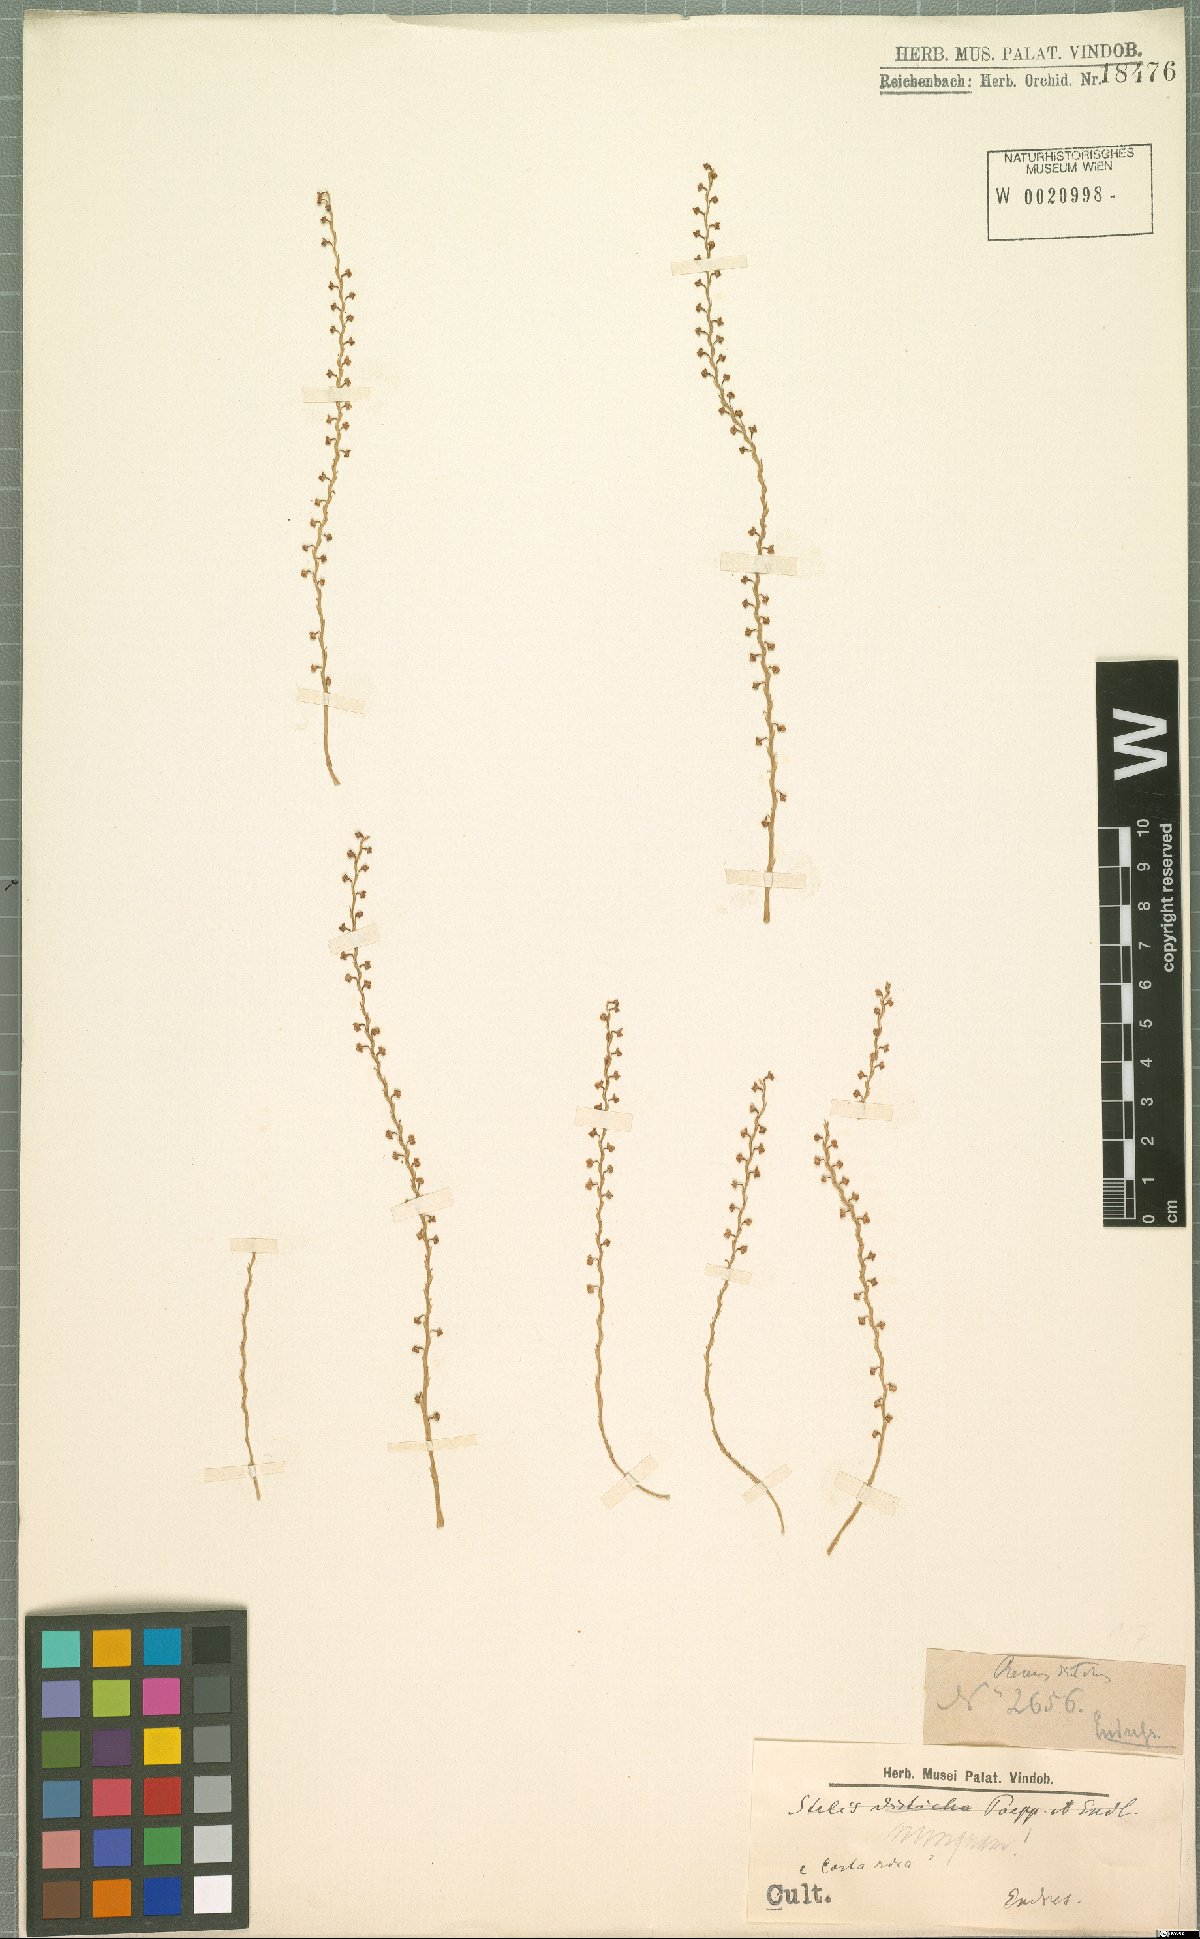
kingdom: Plantae
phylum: Tracheophyta
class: Liliopsida
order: Asparagales
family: Orchidaceae
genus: Stelis
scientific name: Stelis
